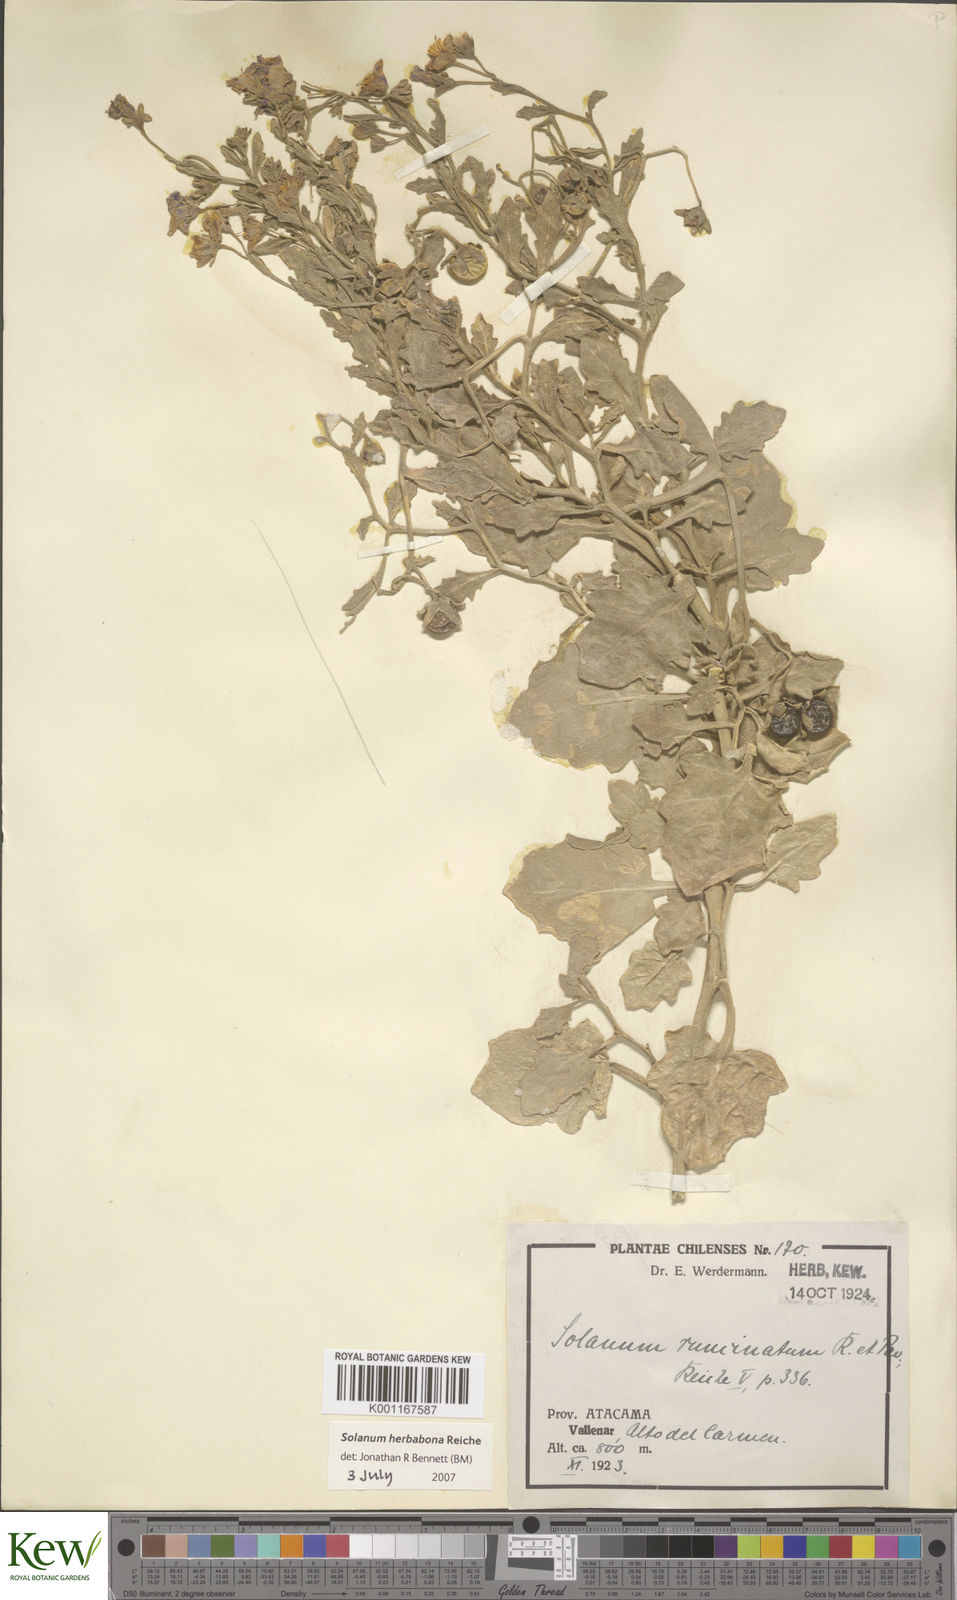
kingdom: Plantae
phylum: Tracheophyta
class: Magnoliopsida
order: Solanales
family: Solanaceae
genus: Solanum
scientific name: Solanum herba-bona
